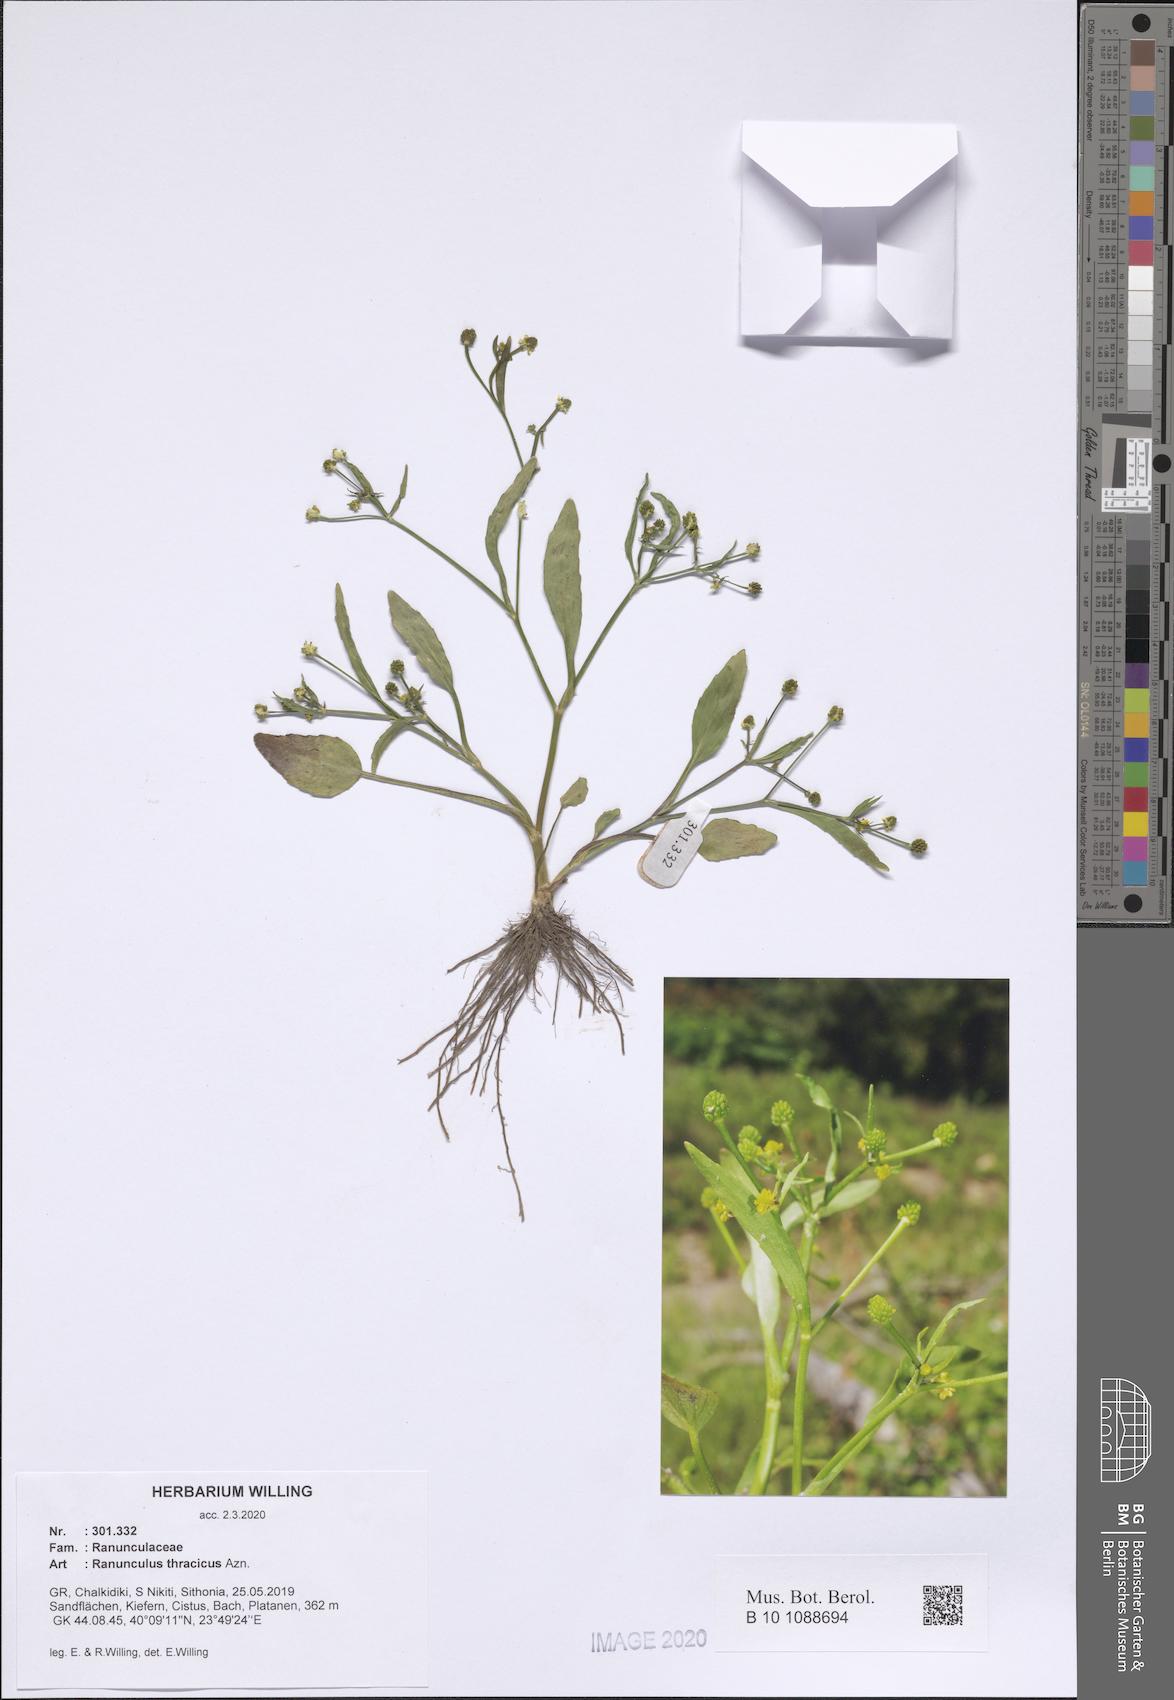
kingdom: Plantae
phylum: Tracheophyta
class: Magnoliopsida
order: Ranunculales
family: Ranunculaceae
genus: Ranunculus
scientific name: Ranunculus thracicus
